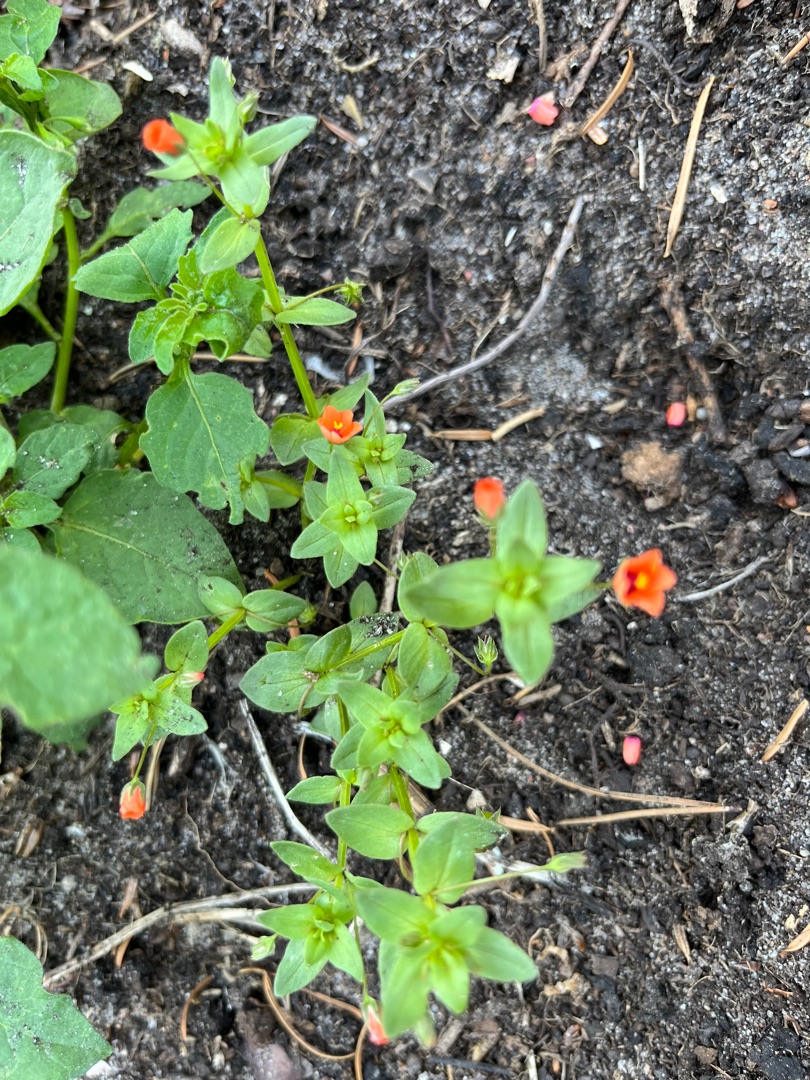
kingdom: Plantae
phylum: Tracheophyta
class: Magnoliopsida
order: Ericales
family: Primulaceae
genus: Lysimachia
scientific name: Lysimachia arvensis
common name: Rød arve
